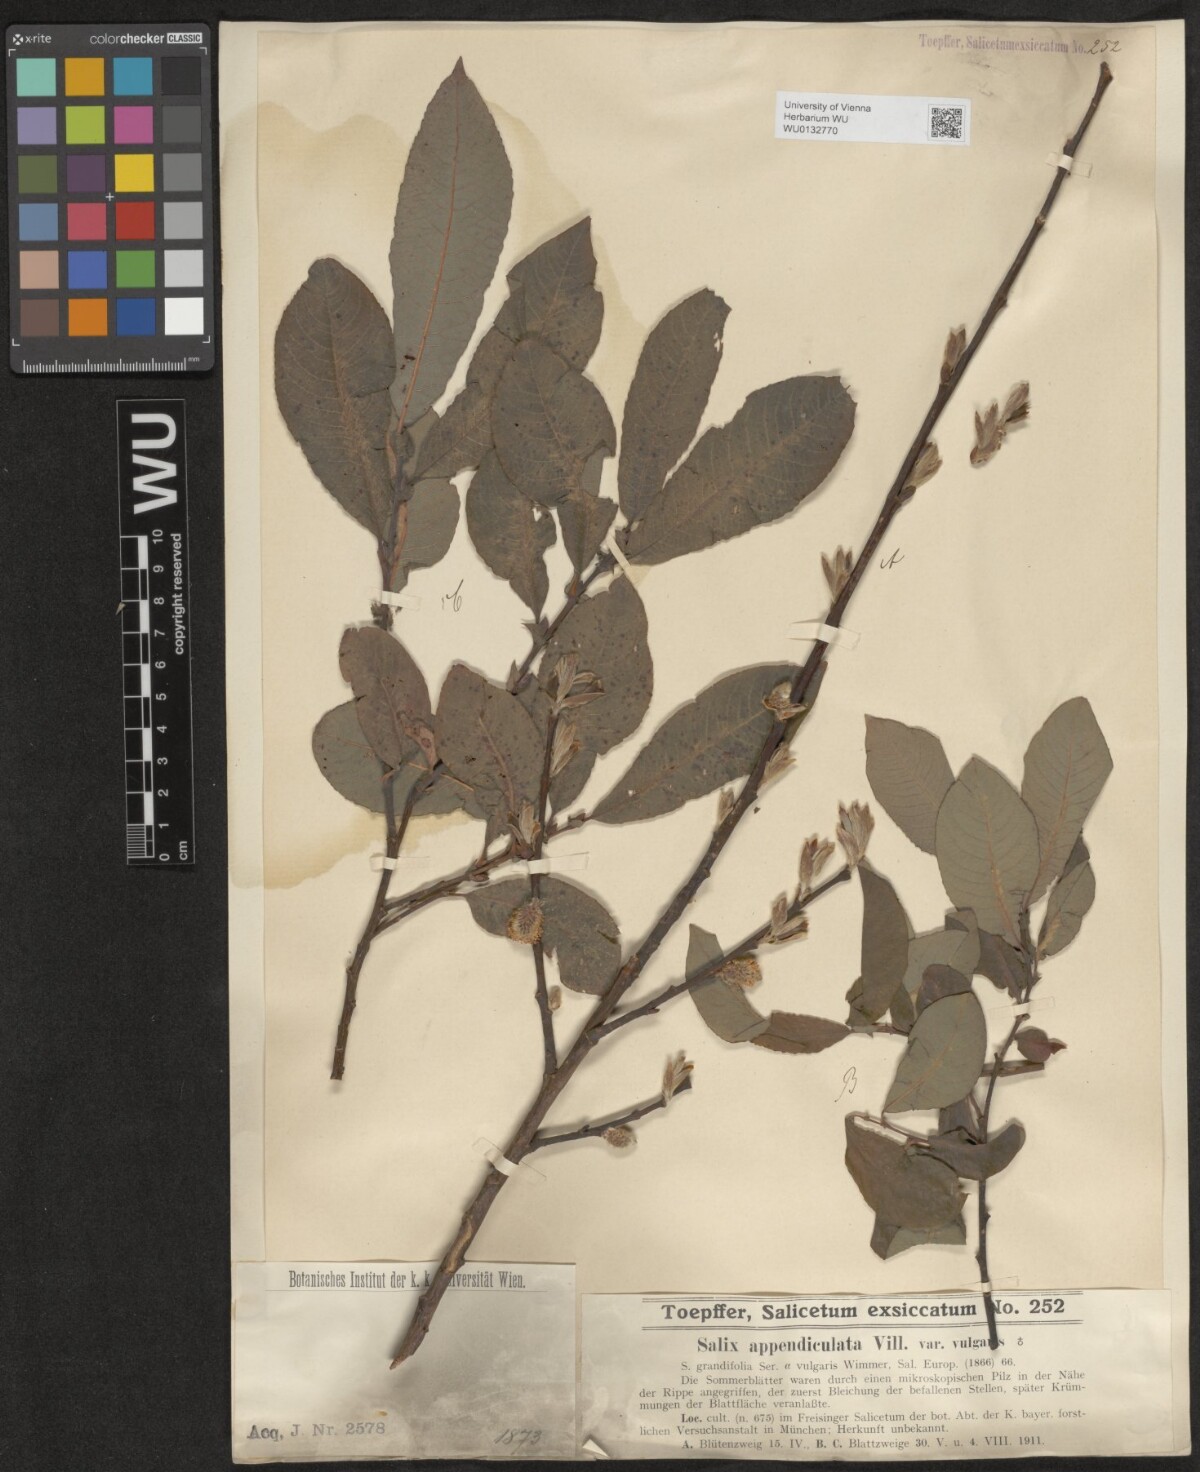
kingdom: Plantae
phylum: Tracheophyta
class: Magnoliopsida
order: Malpighiales
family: Salicaceae
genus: Salix
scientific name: Salix appendiculata
